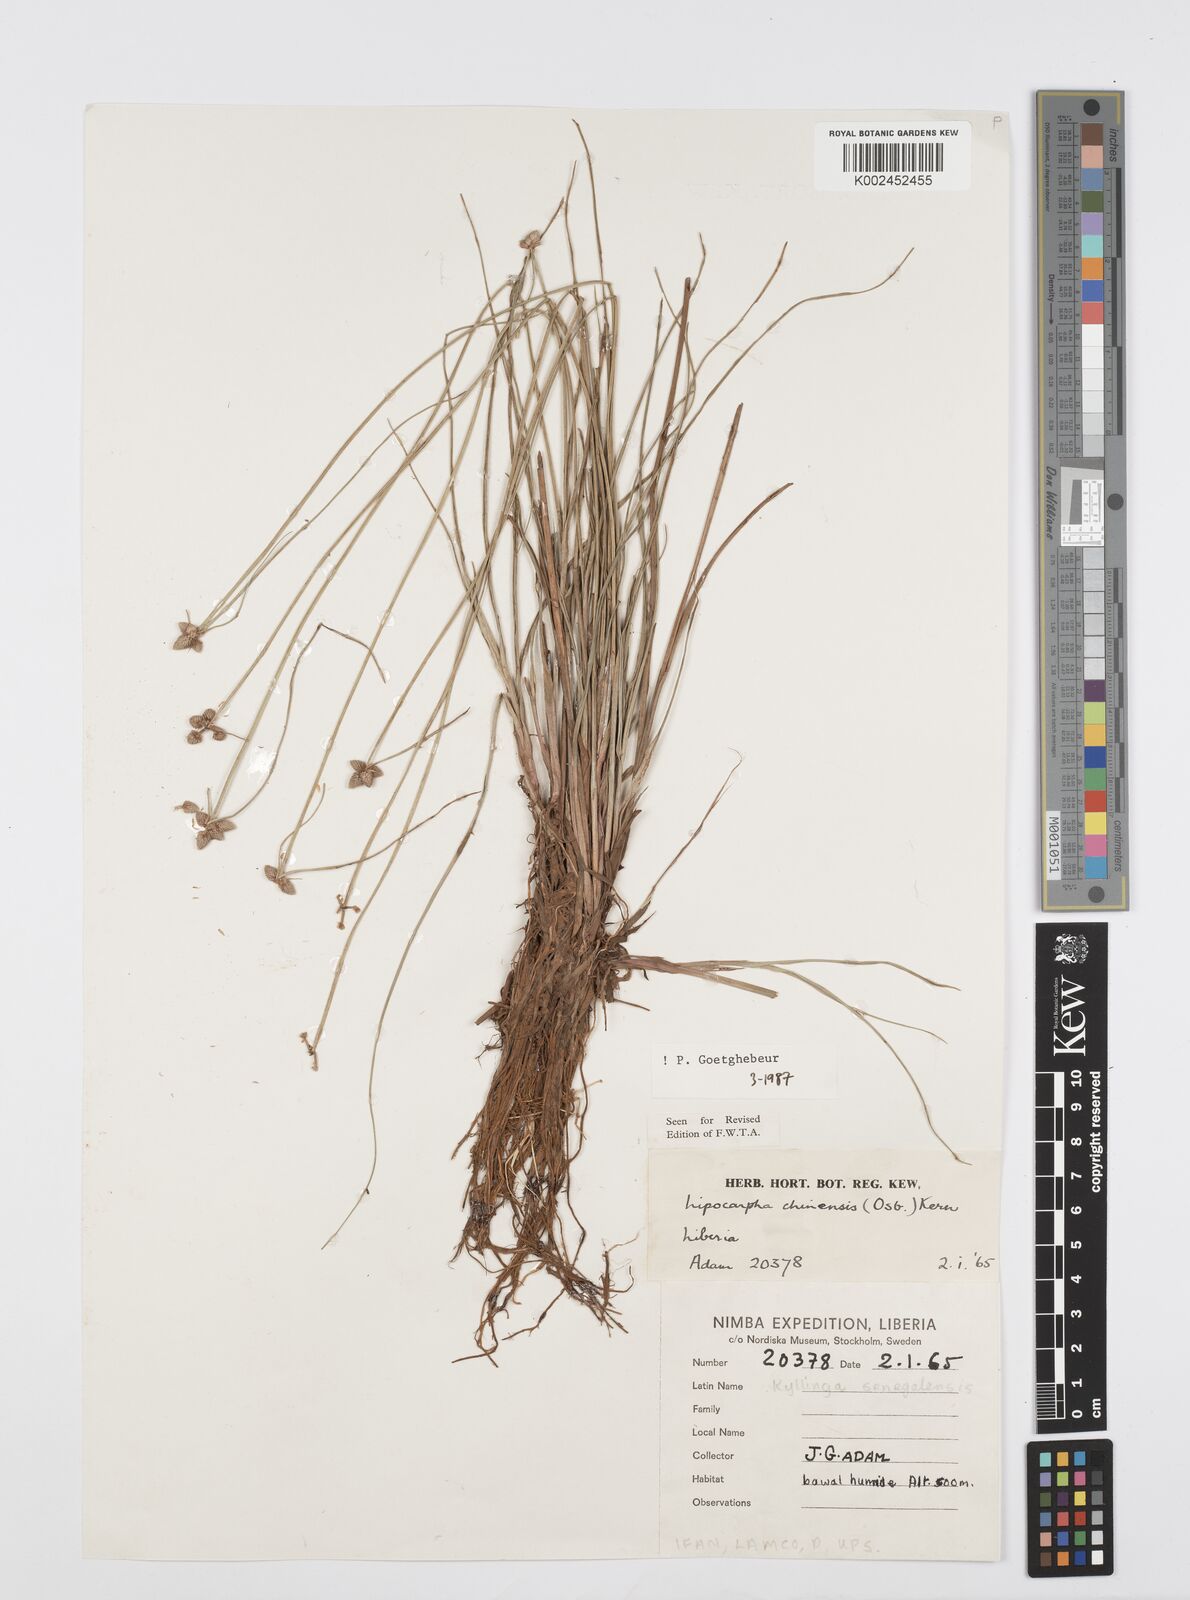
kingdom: Plantae
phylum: Tracheophyta
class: Liliopsida
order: Poales
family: Cyperaceae
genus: Cyperus
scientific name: Cyperus albescens
